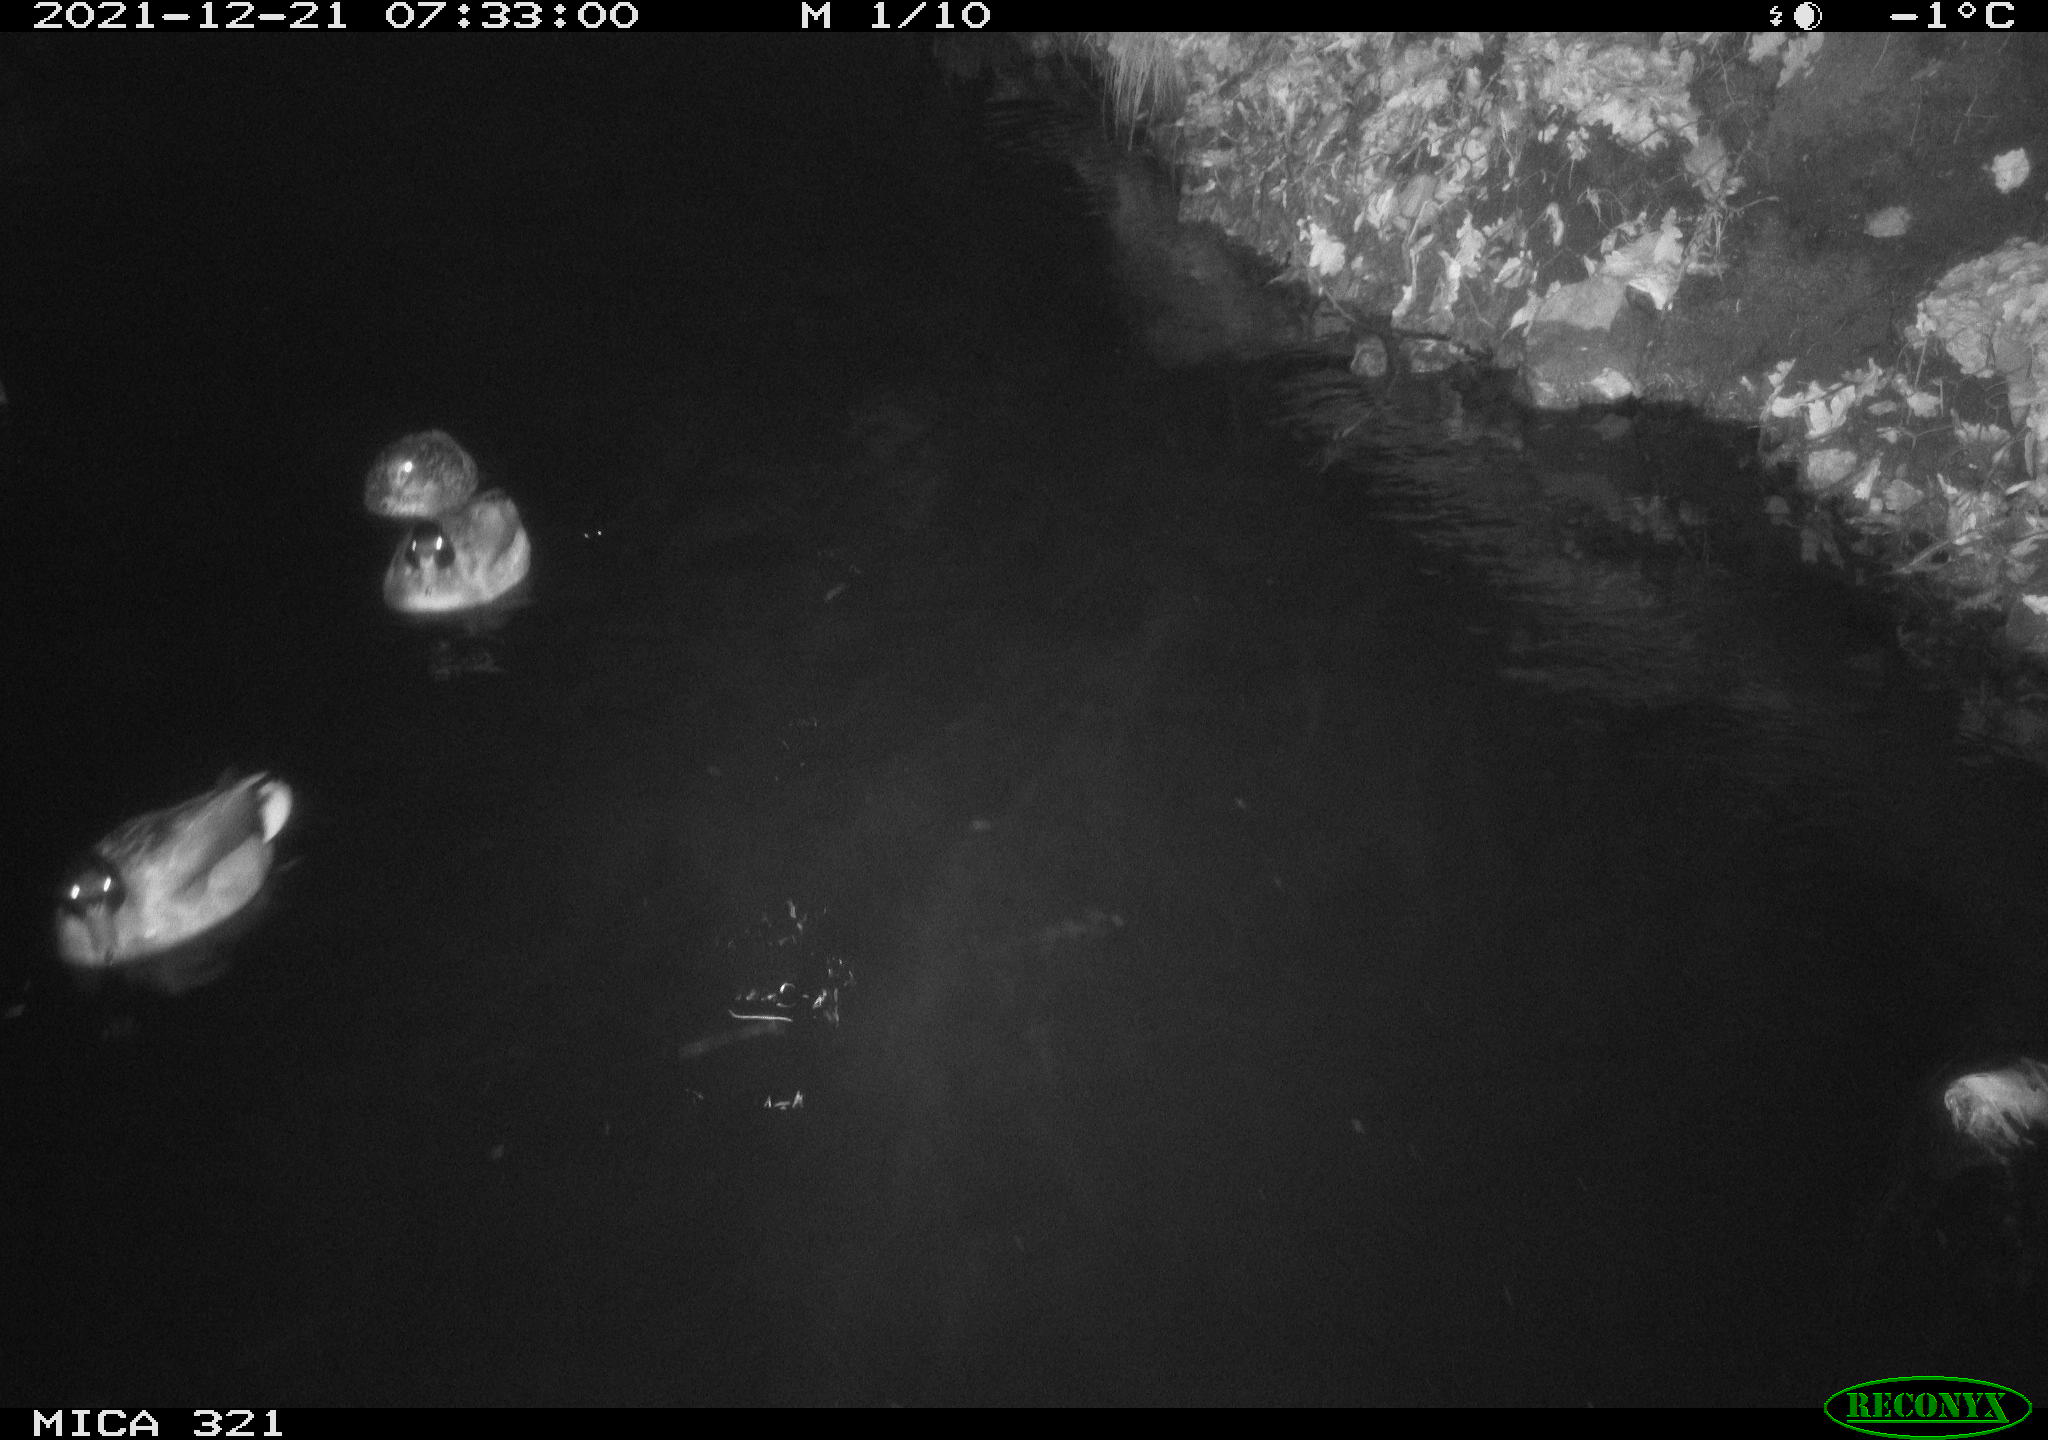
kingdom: Animalia
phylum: Chordata
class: Aves
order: Anseriformes
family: Anatidae
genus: Anas
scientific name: Anas
